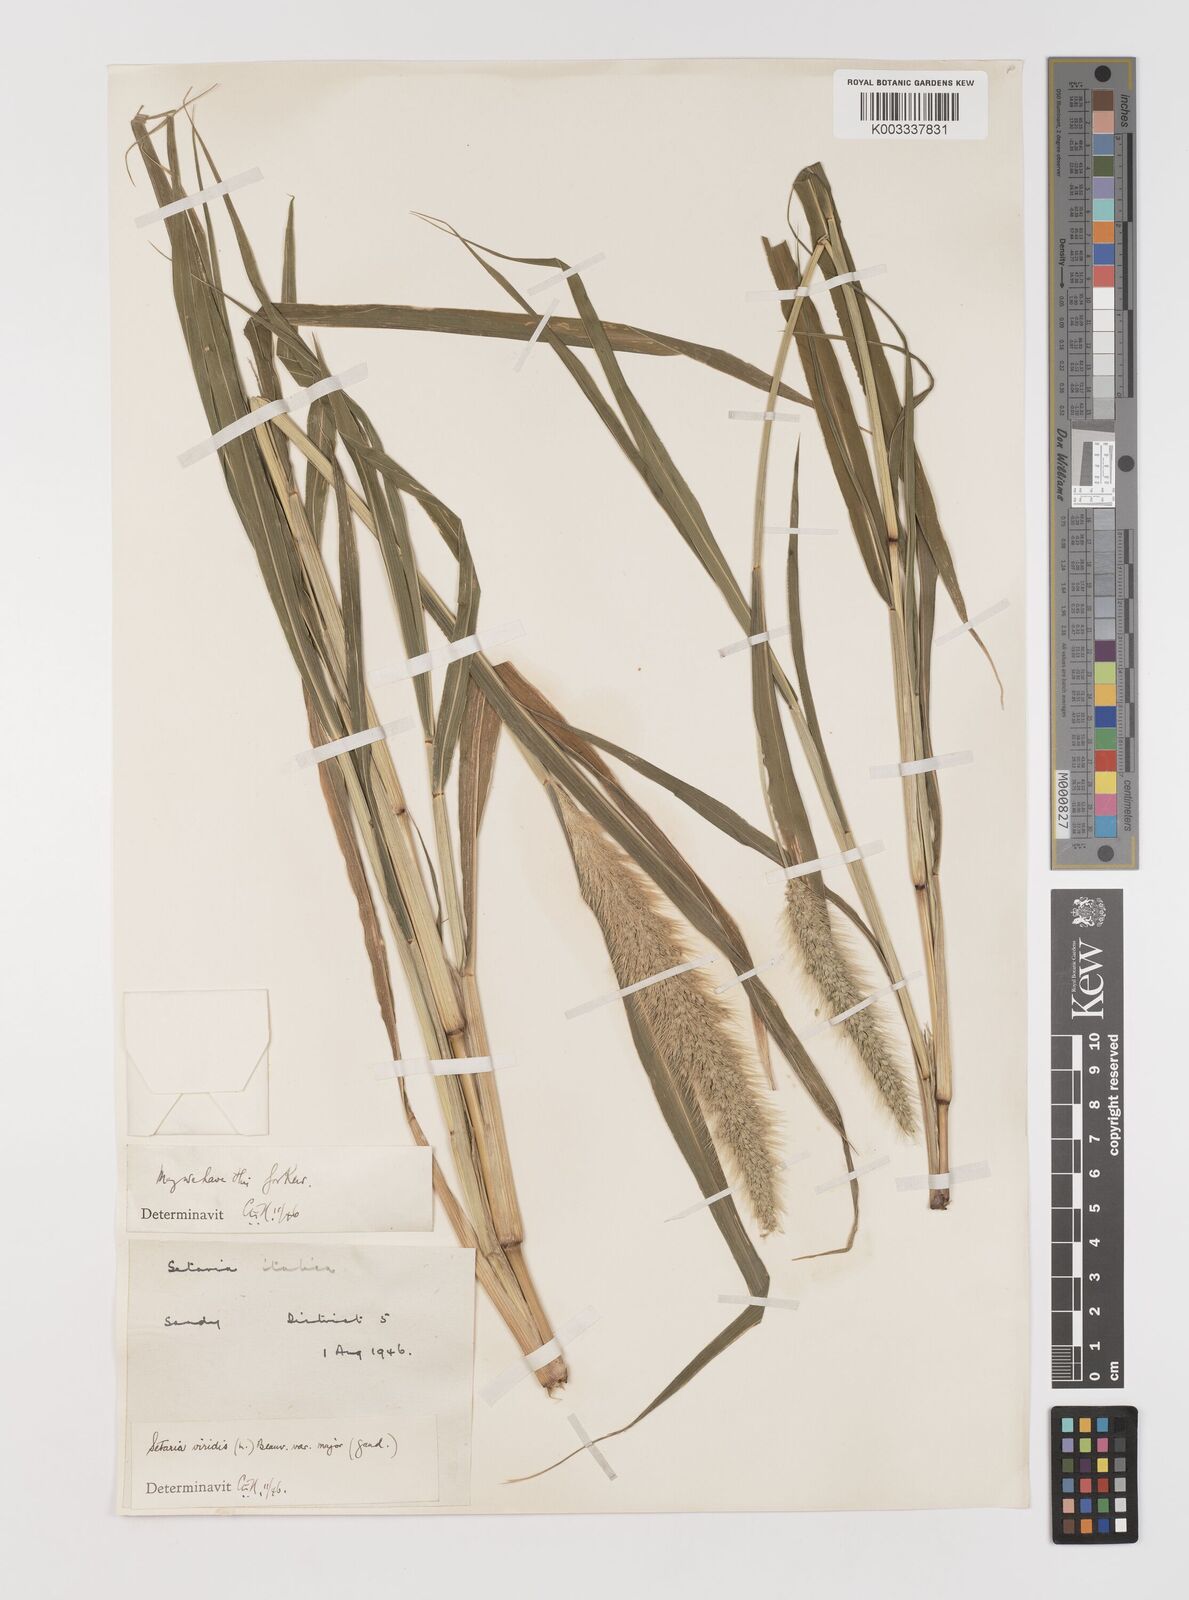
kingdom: Plantae
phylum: Tracheophyta
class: Liliopsida
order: Poales
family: Poaceae
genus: Setaria
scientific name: Setaria viridis
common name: Green bristlegrass
